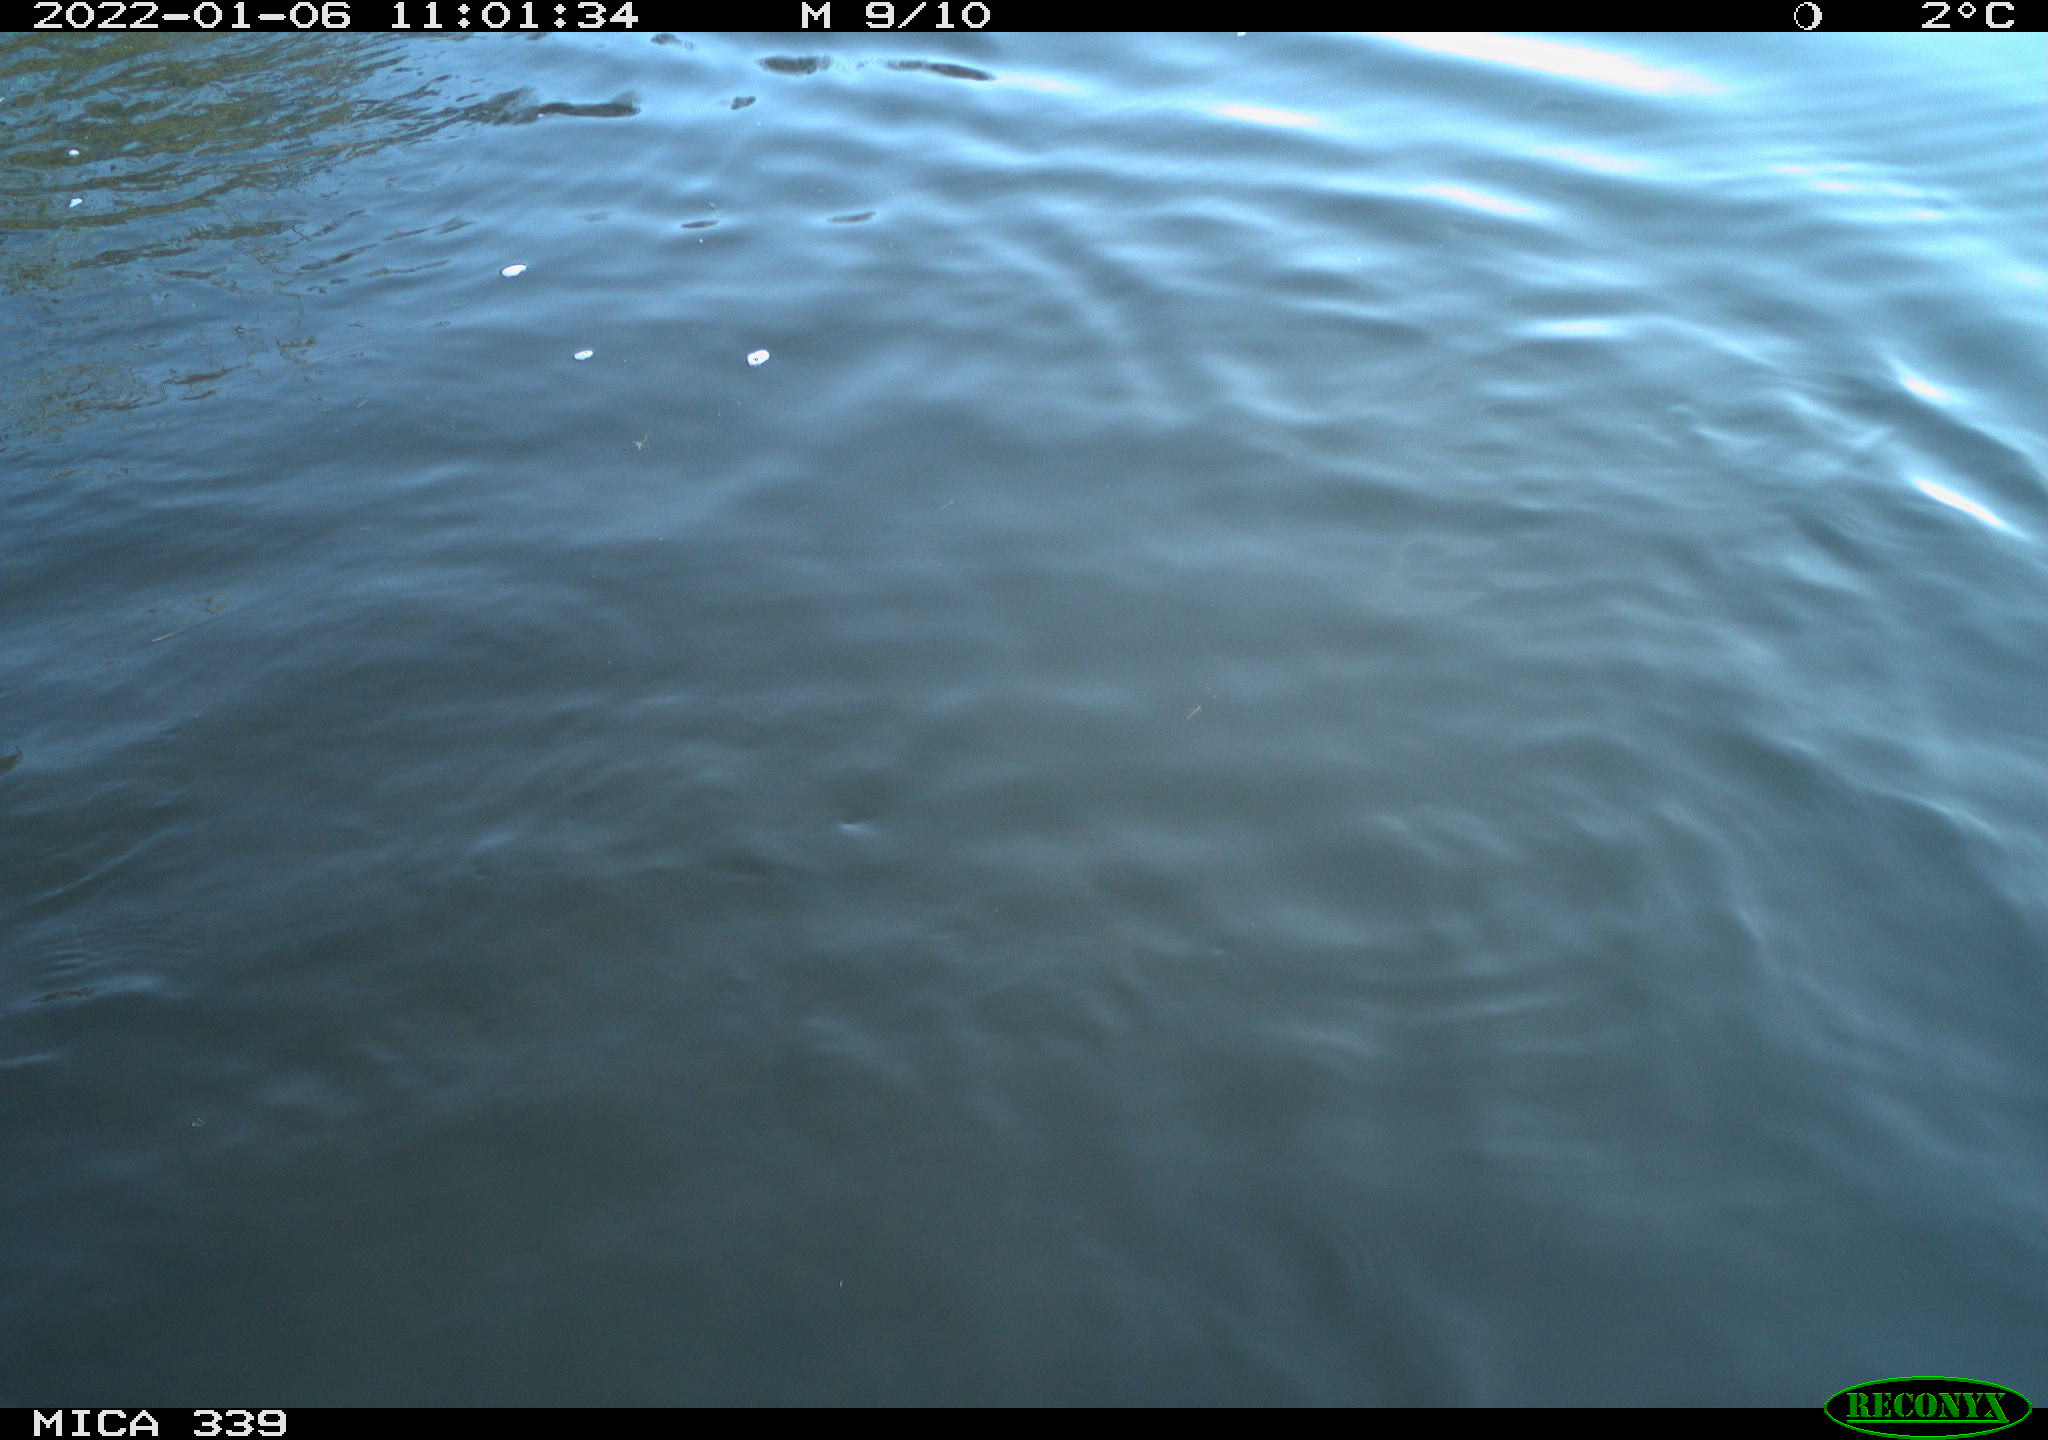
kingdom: Animalia
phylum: Chordata
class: Aves
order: Suliformes
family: Phalacrocoracidae
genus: Phalacrocorax
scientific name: Phalacrocorax carbo
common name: Great cormorant
